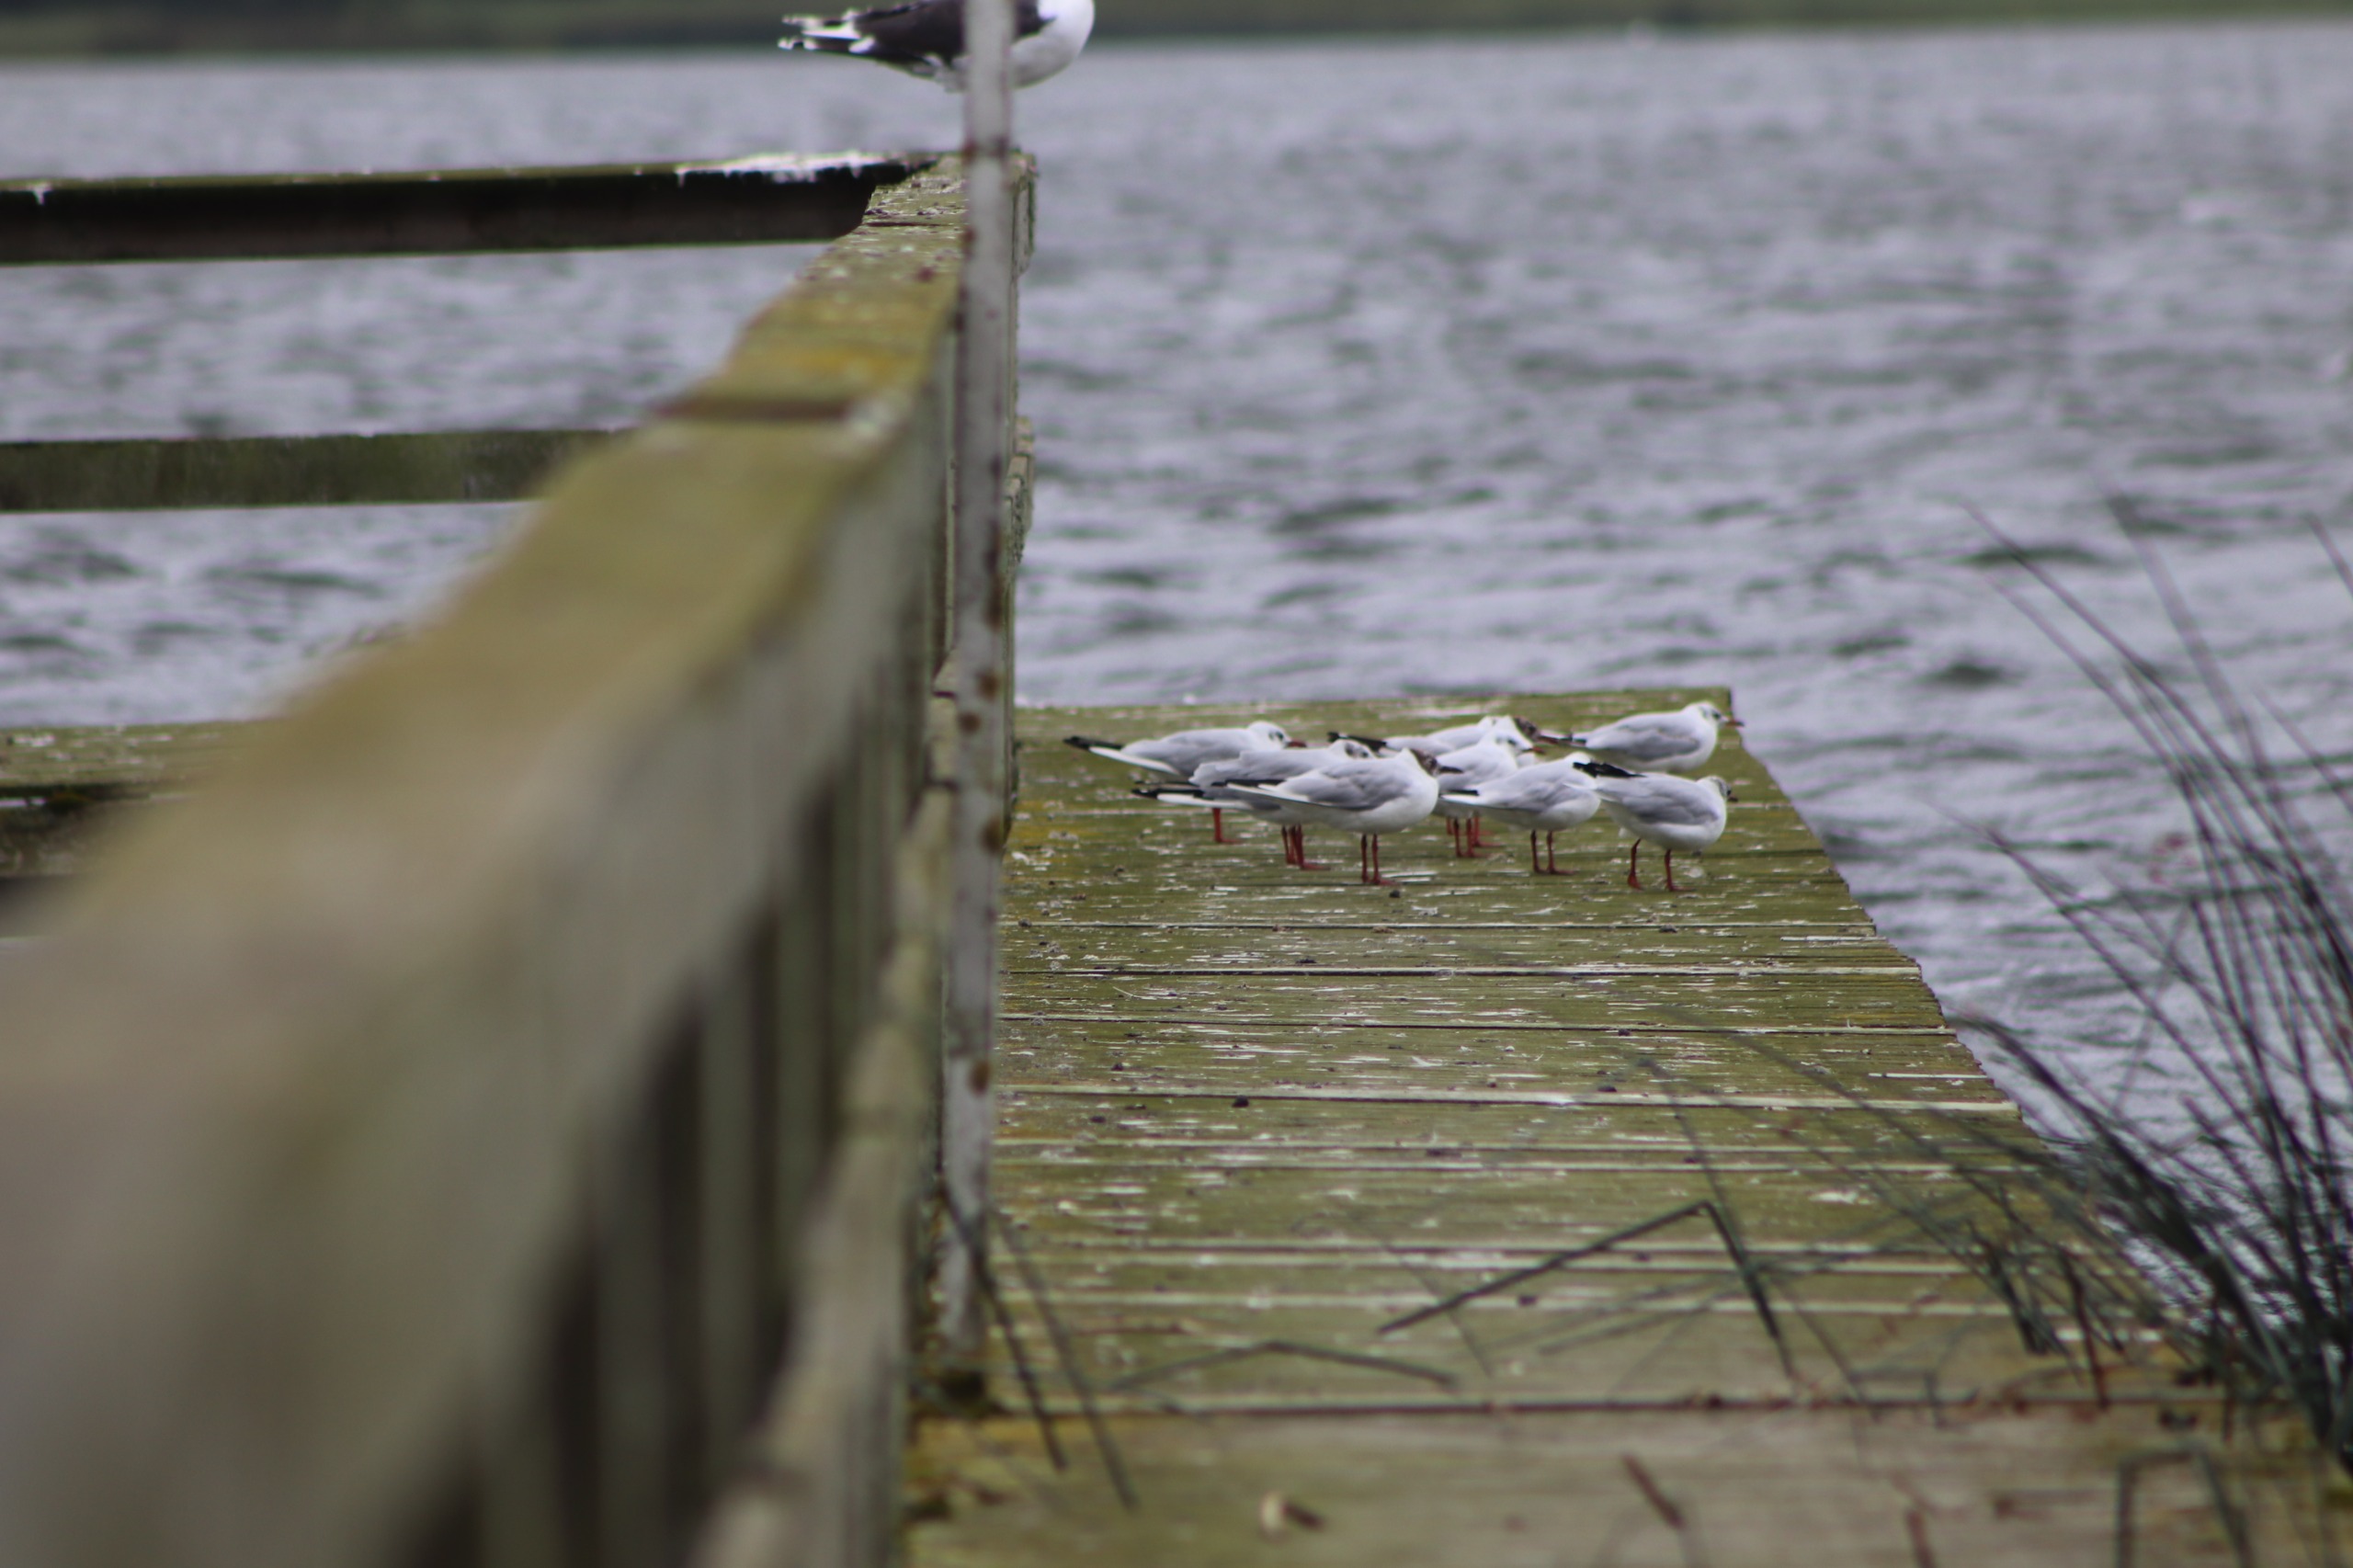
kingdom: Animalia
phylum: Chordata
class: Aves
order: Charadriiformes
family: Laridae
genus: Chroicocephalus
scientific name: Chroicocephalus ridibundus
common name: Hættemåge
